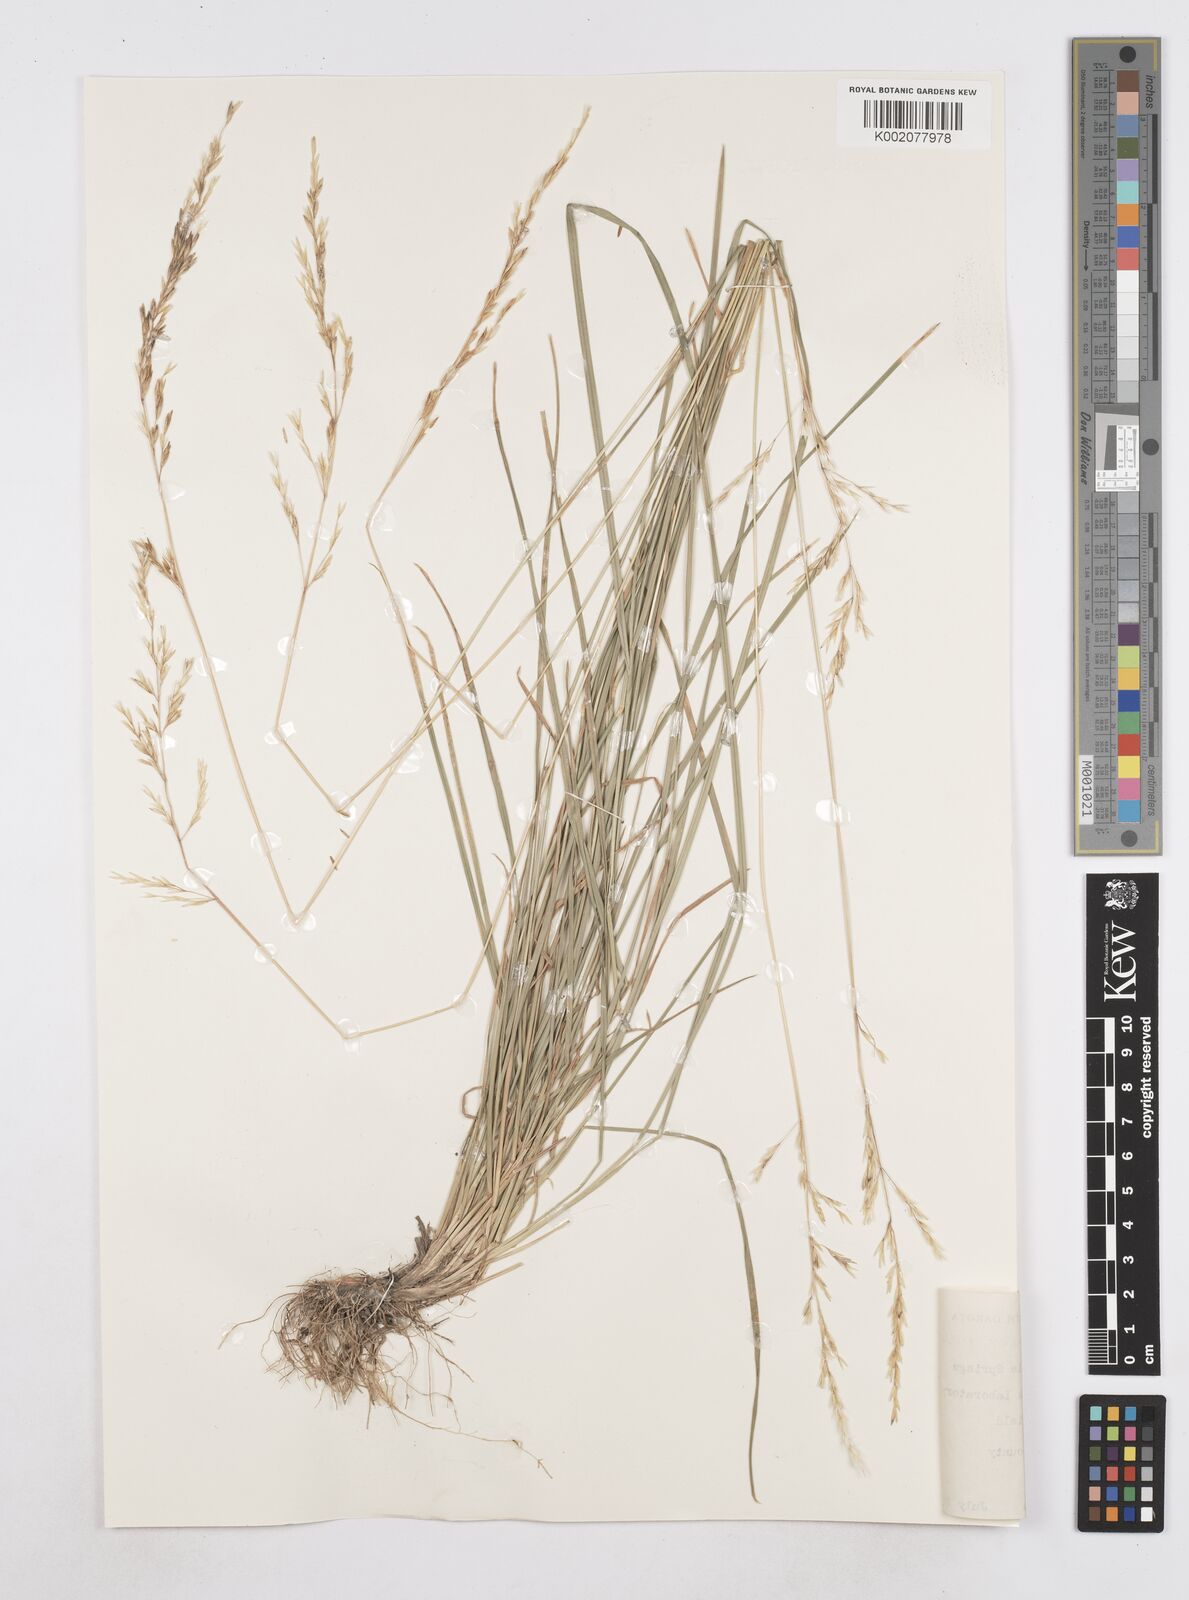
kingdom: Plantae
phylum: Tracheophyta
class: Liliopsida
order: Poales
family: Poaceae
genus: Poa
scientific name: Poa arida
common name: Plains bluegrass
